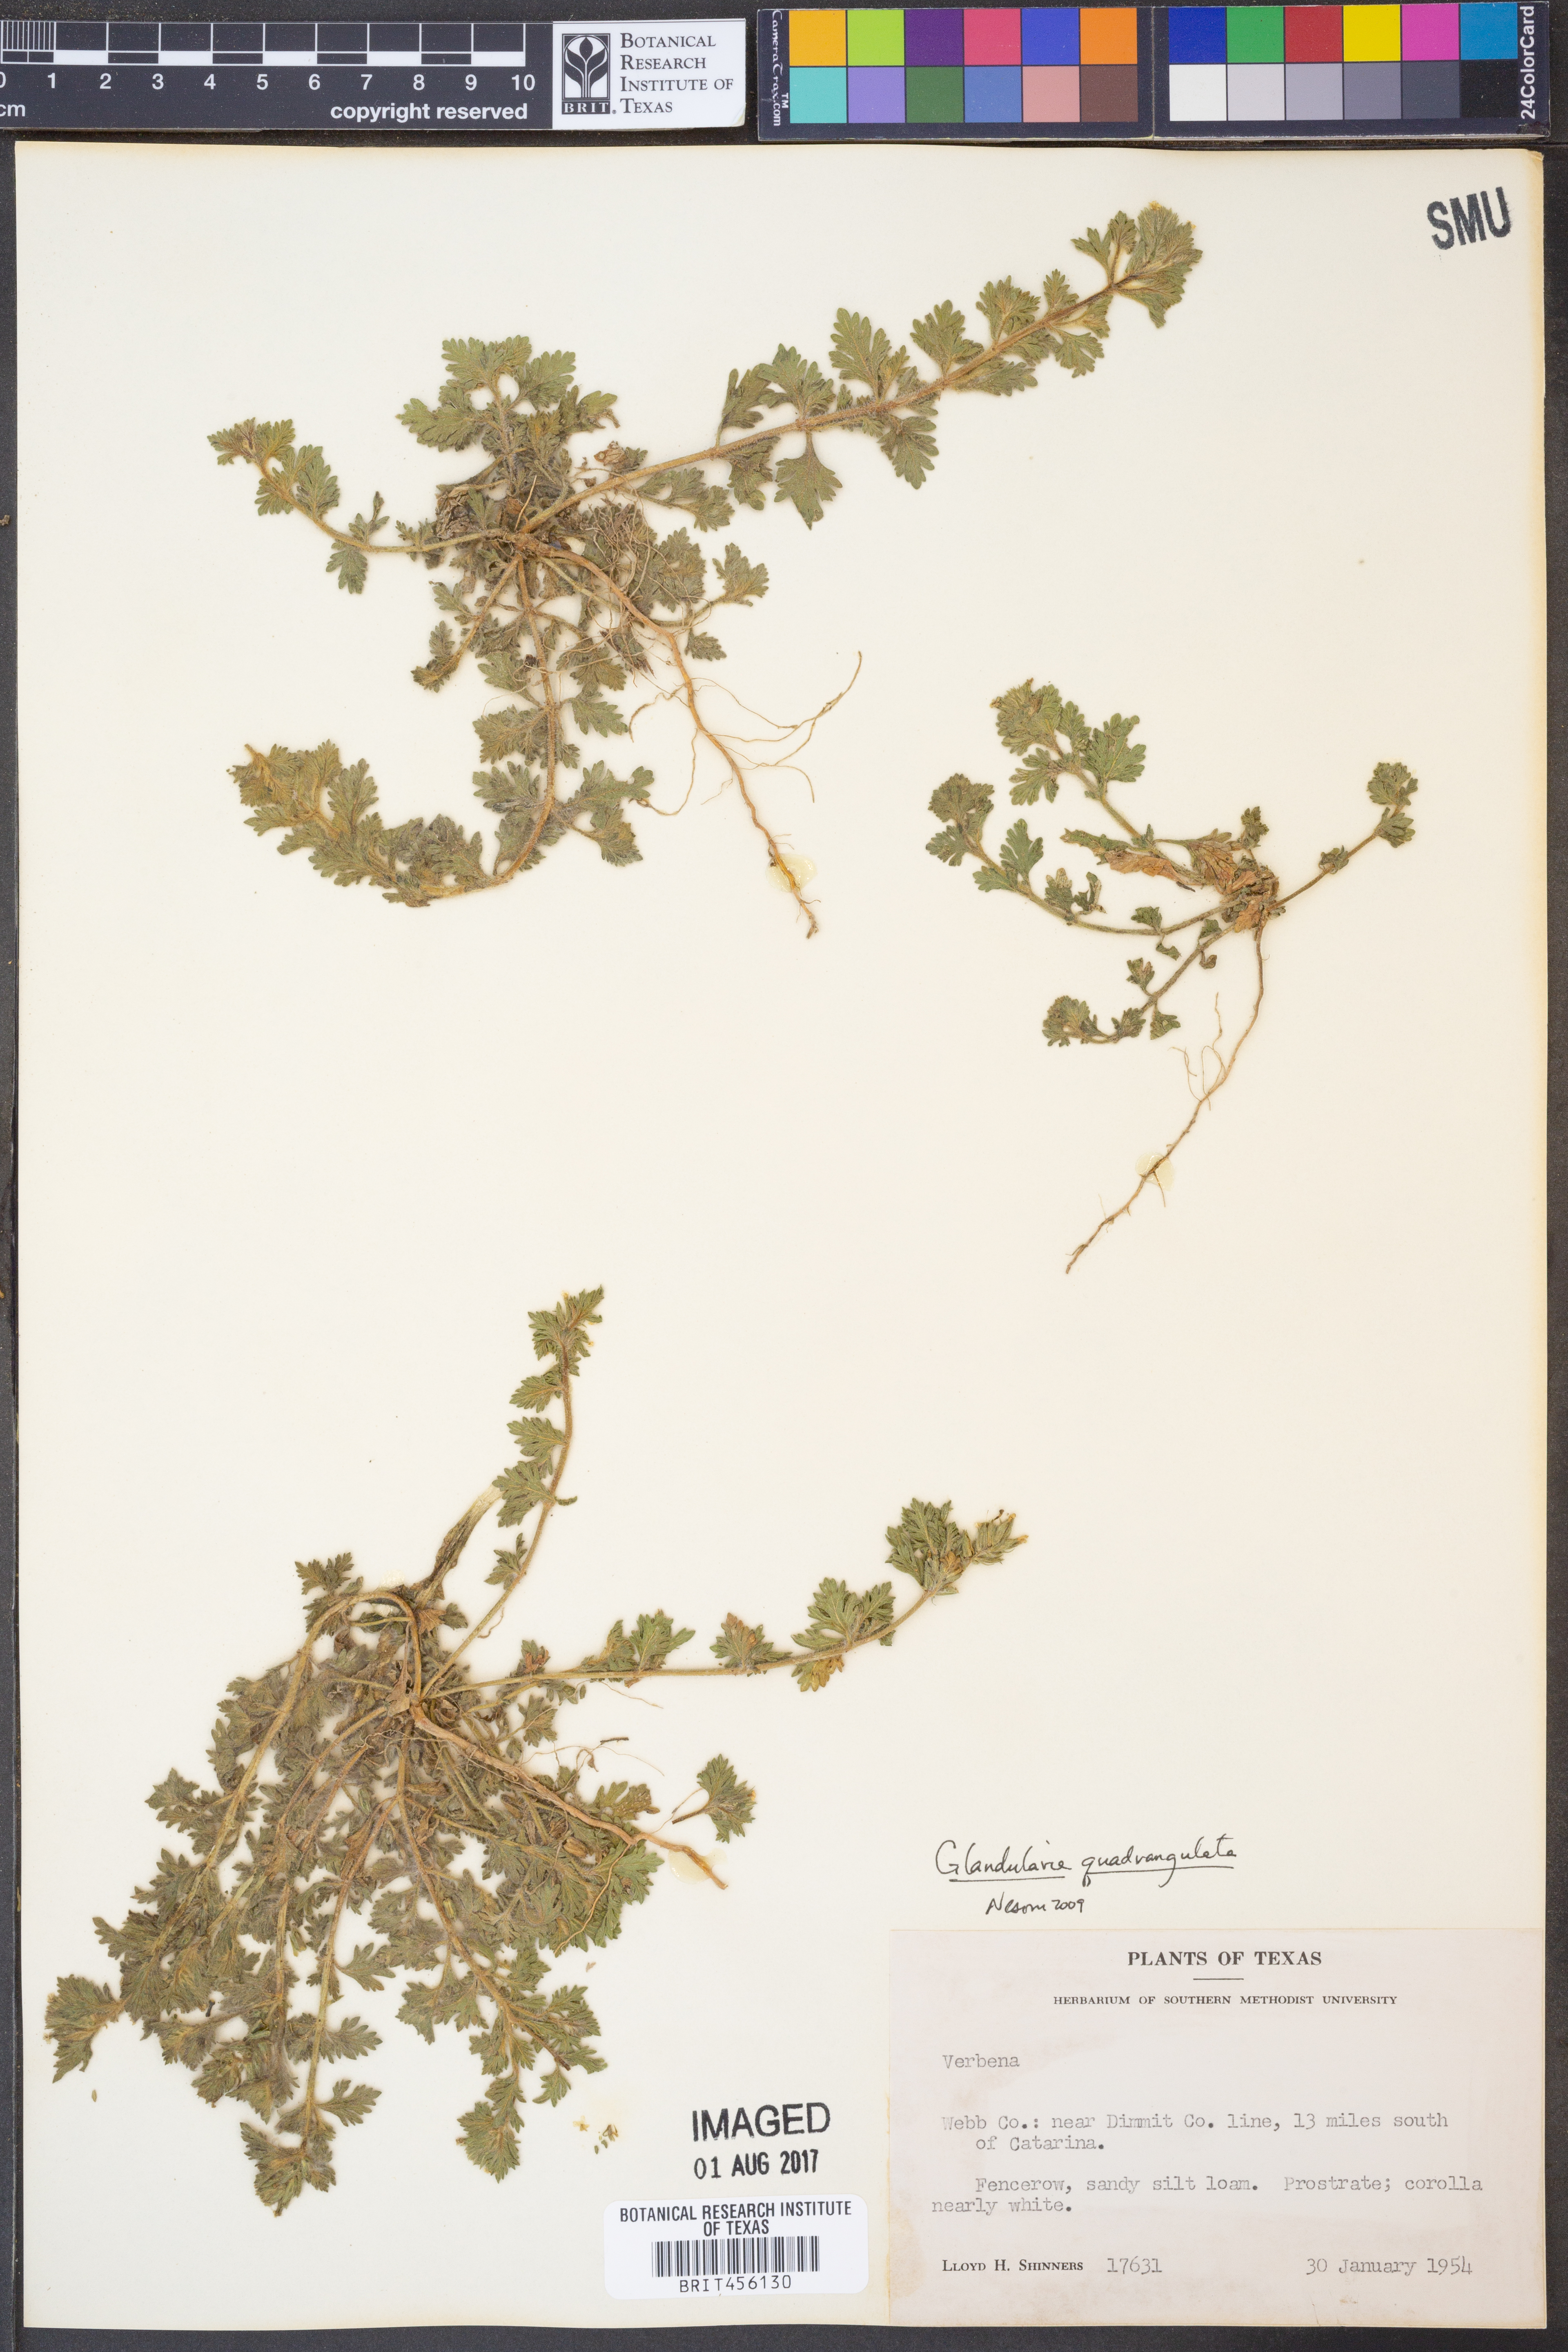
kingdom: Plantae
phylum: Tracheophyta
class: Magnoliopsida
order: Lamiales
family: Verbenaceae
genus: Verbena
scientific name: Verbena quadrangulata
